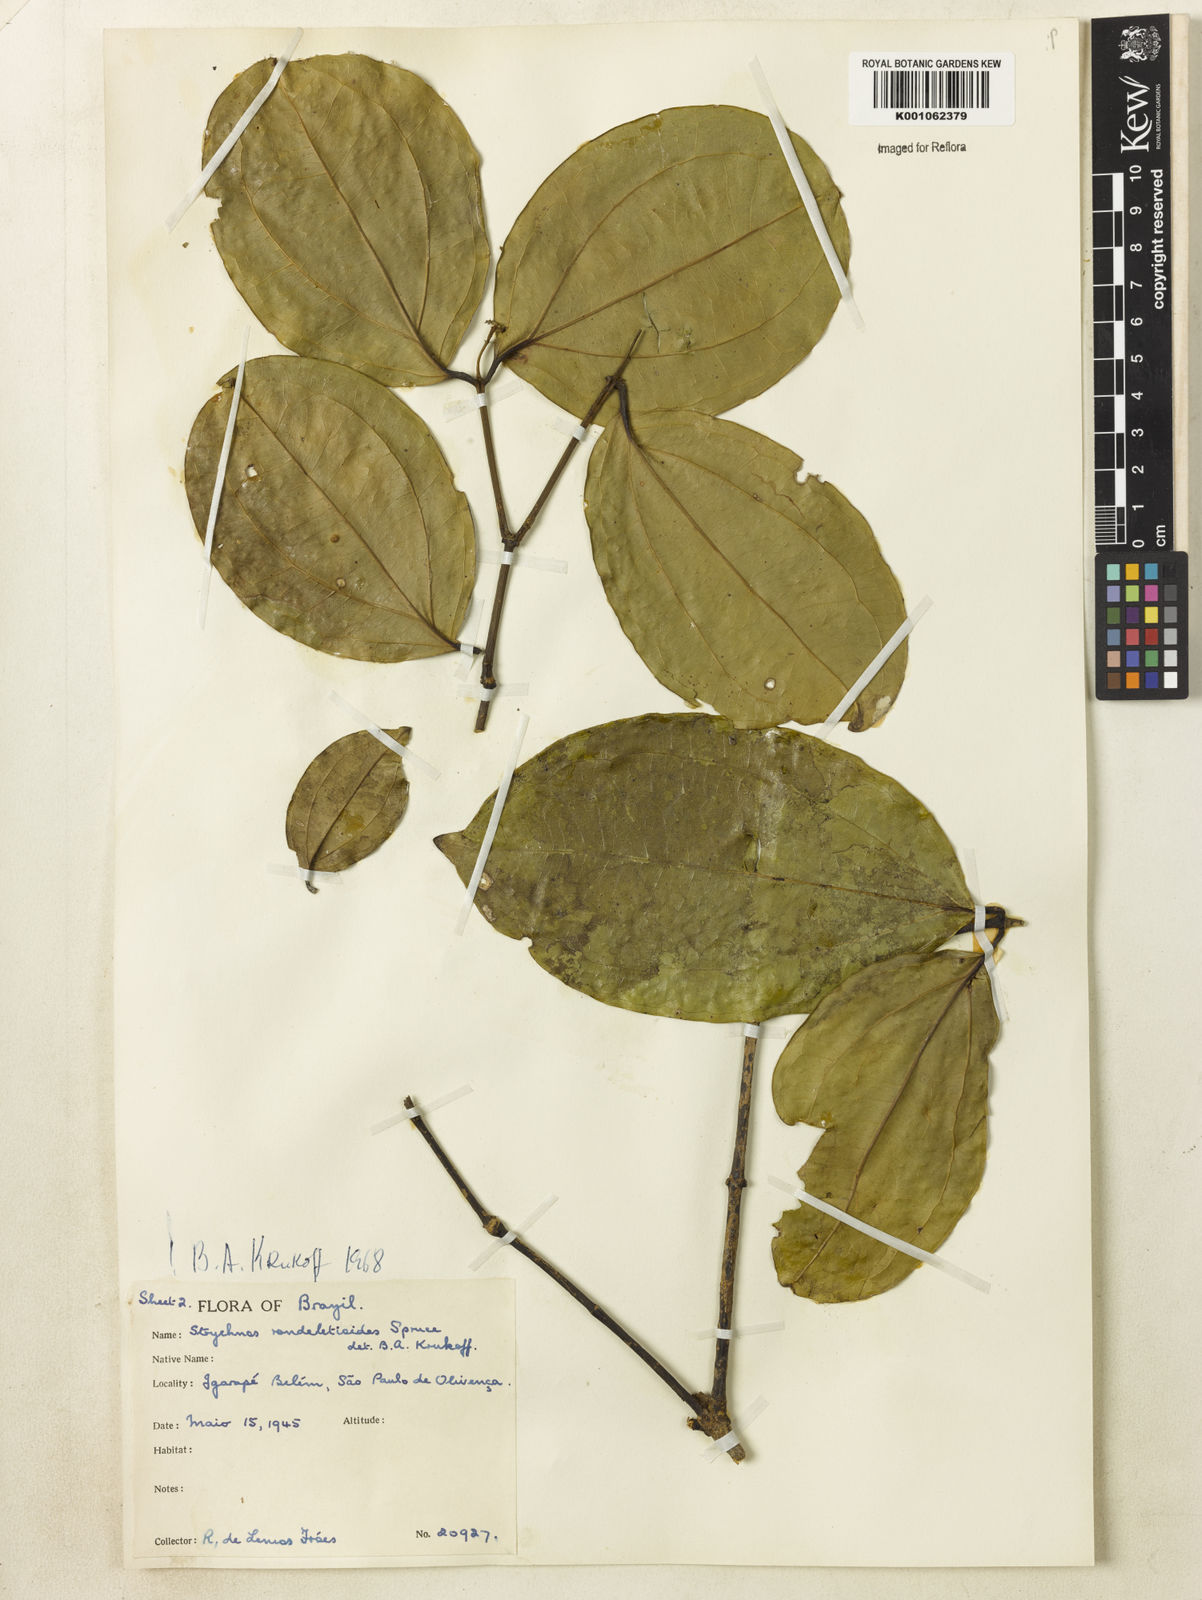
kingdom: Plantae
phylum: Tracheophyta
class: Magnoliopsida
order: Gentianales
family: Loganiaceae
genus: Strychnos
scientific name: Strychnos rondeletioides
